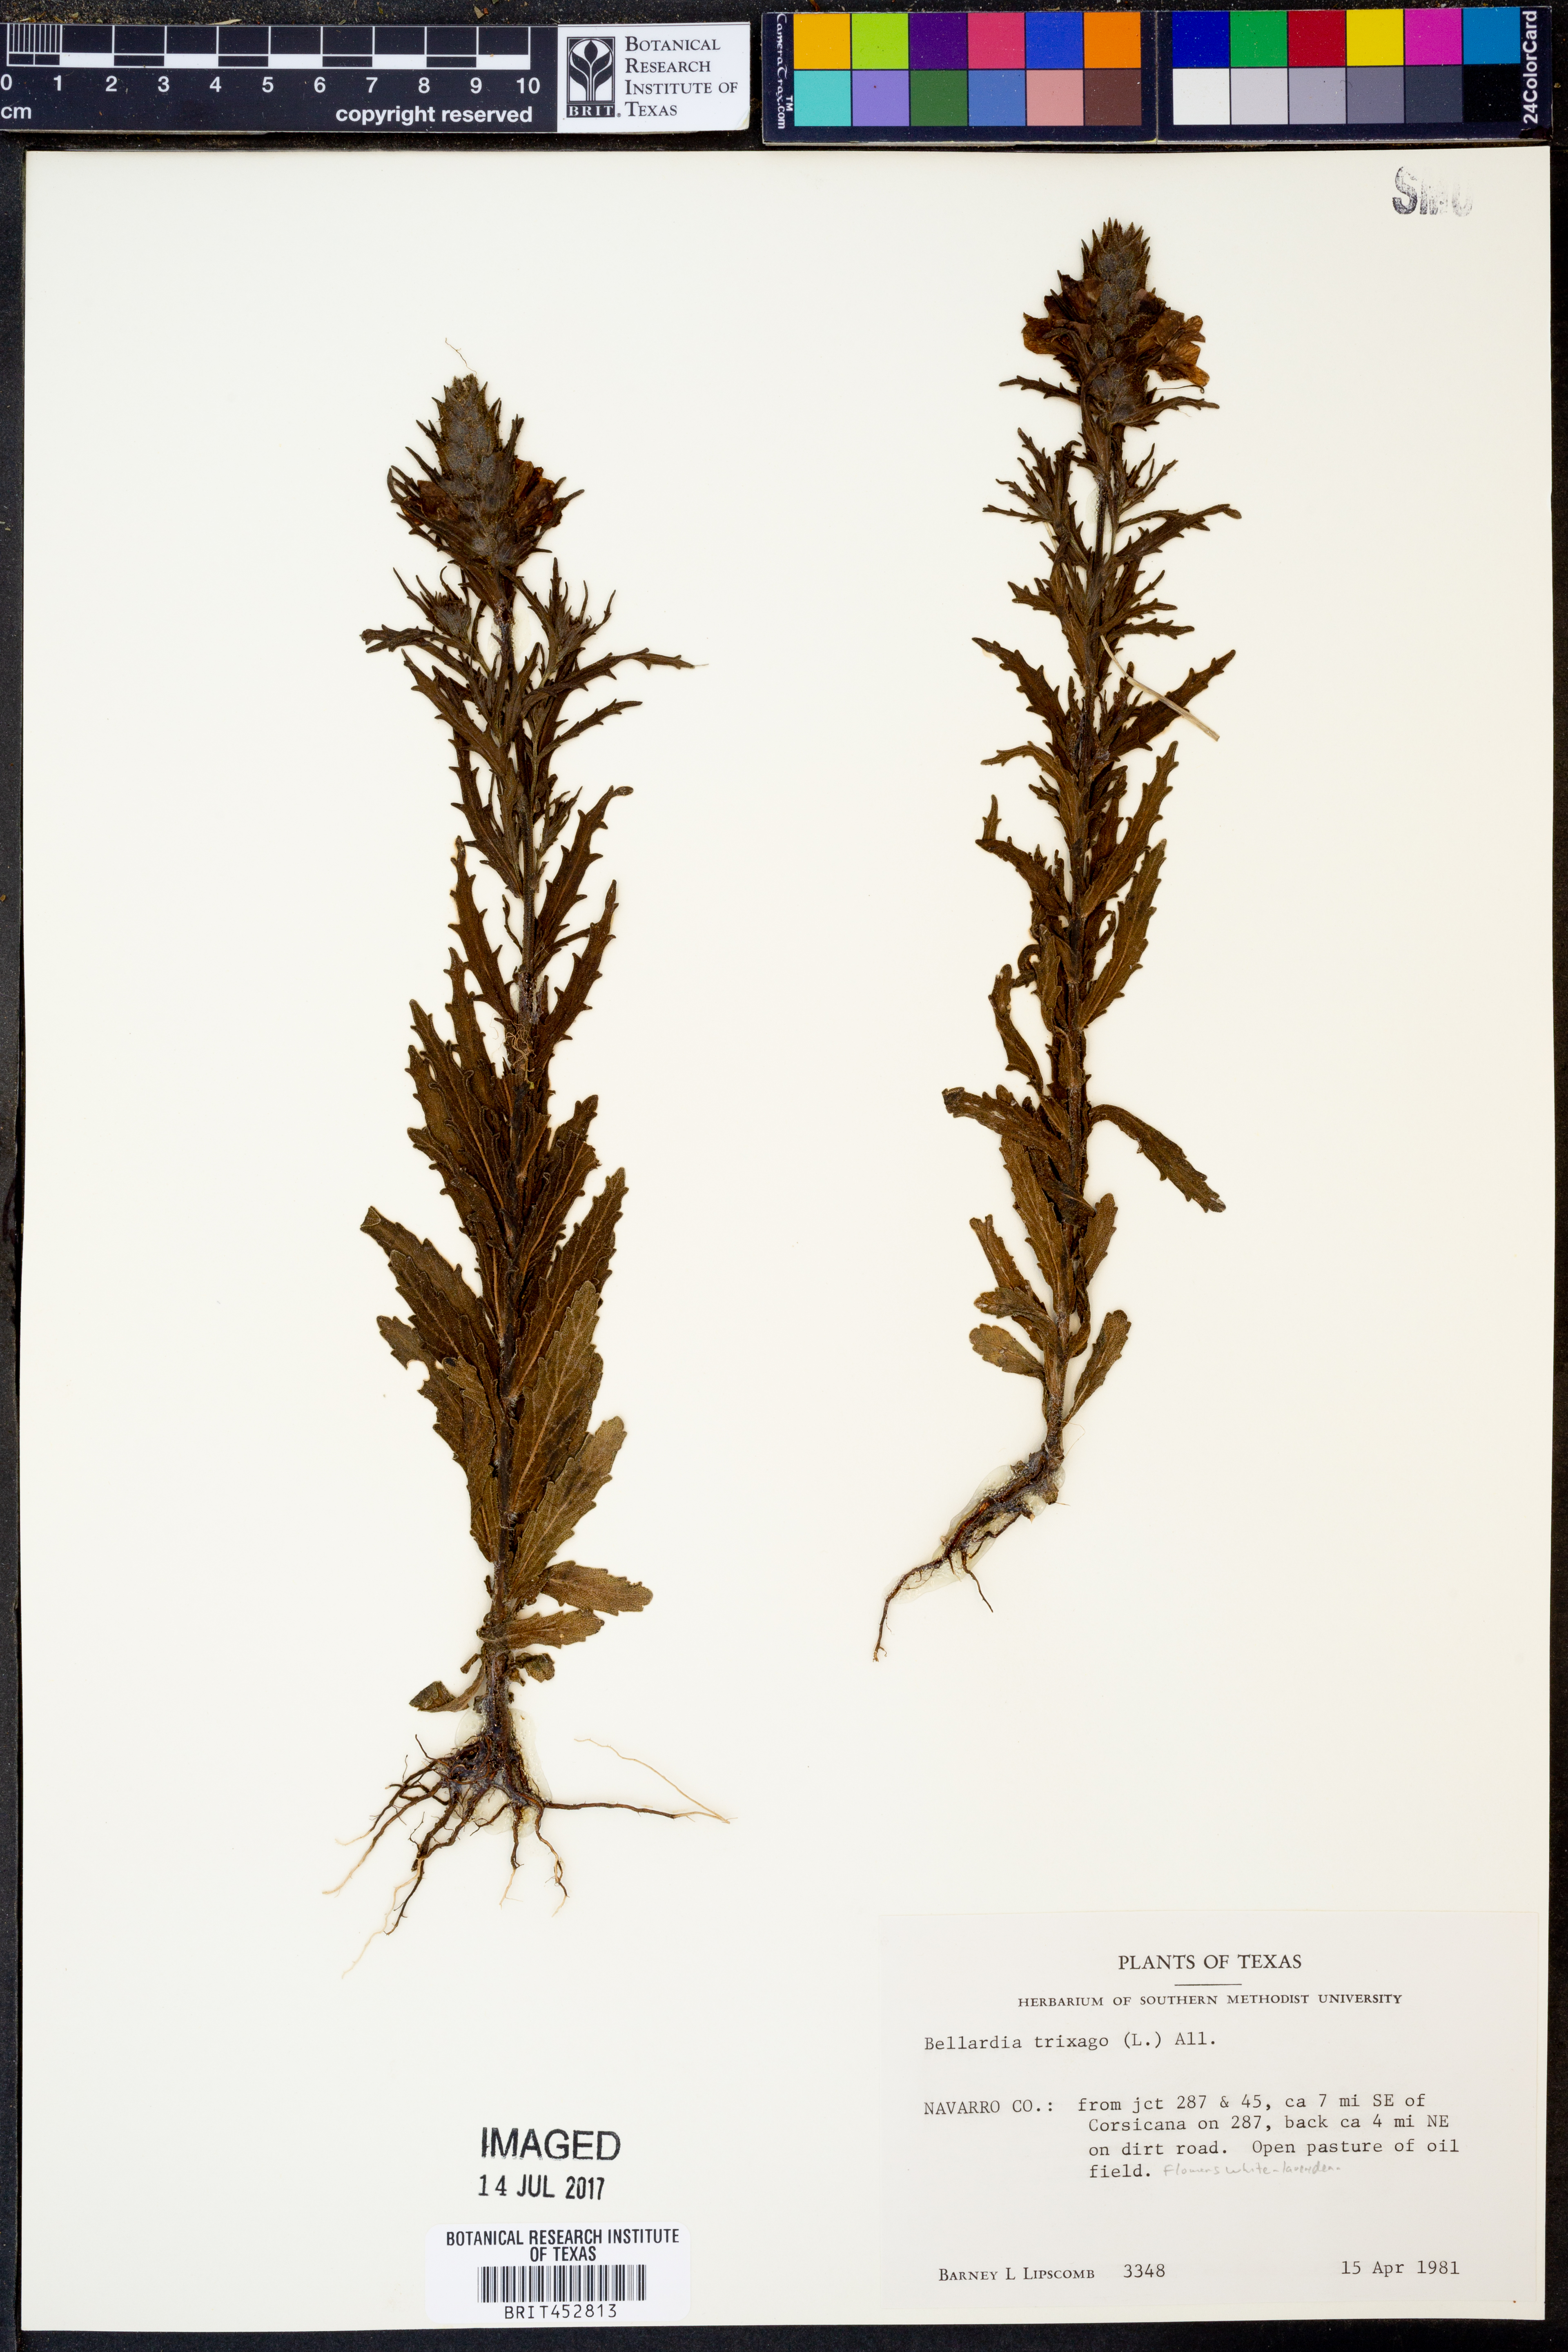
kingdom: Plantae
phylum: Tracheophyta
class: Magnoliopsida
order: Lamiales
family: Orobanchaceae
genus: Bellardia
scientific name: Bellardia trixago
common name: Mediterranean lineseed
